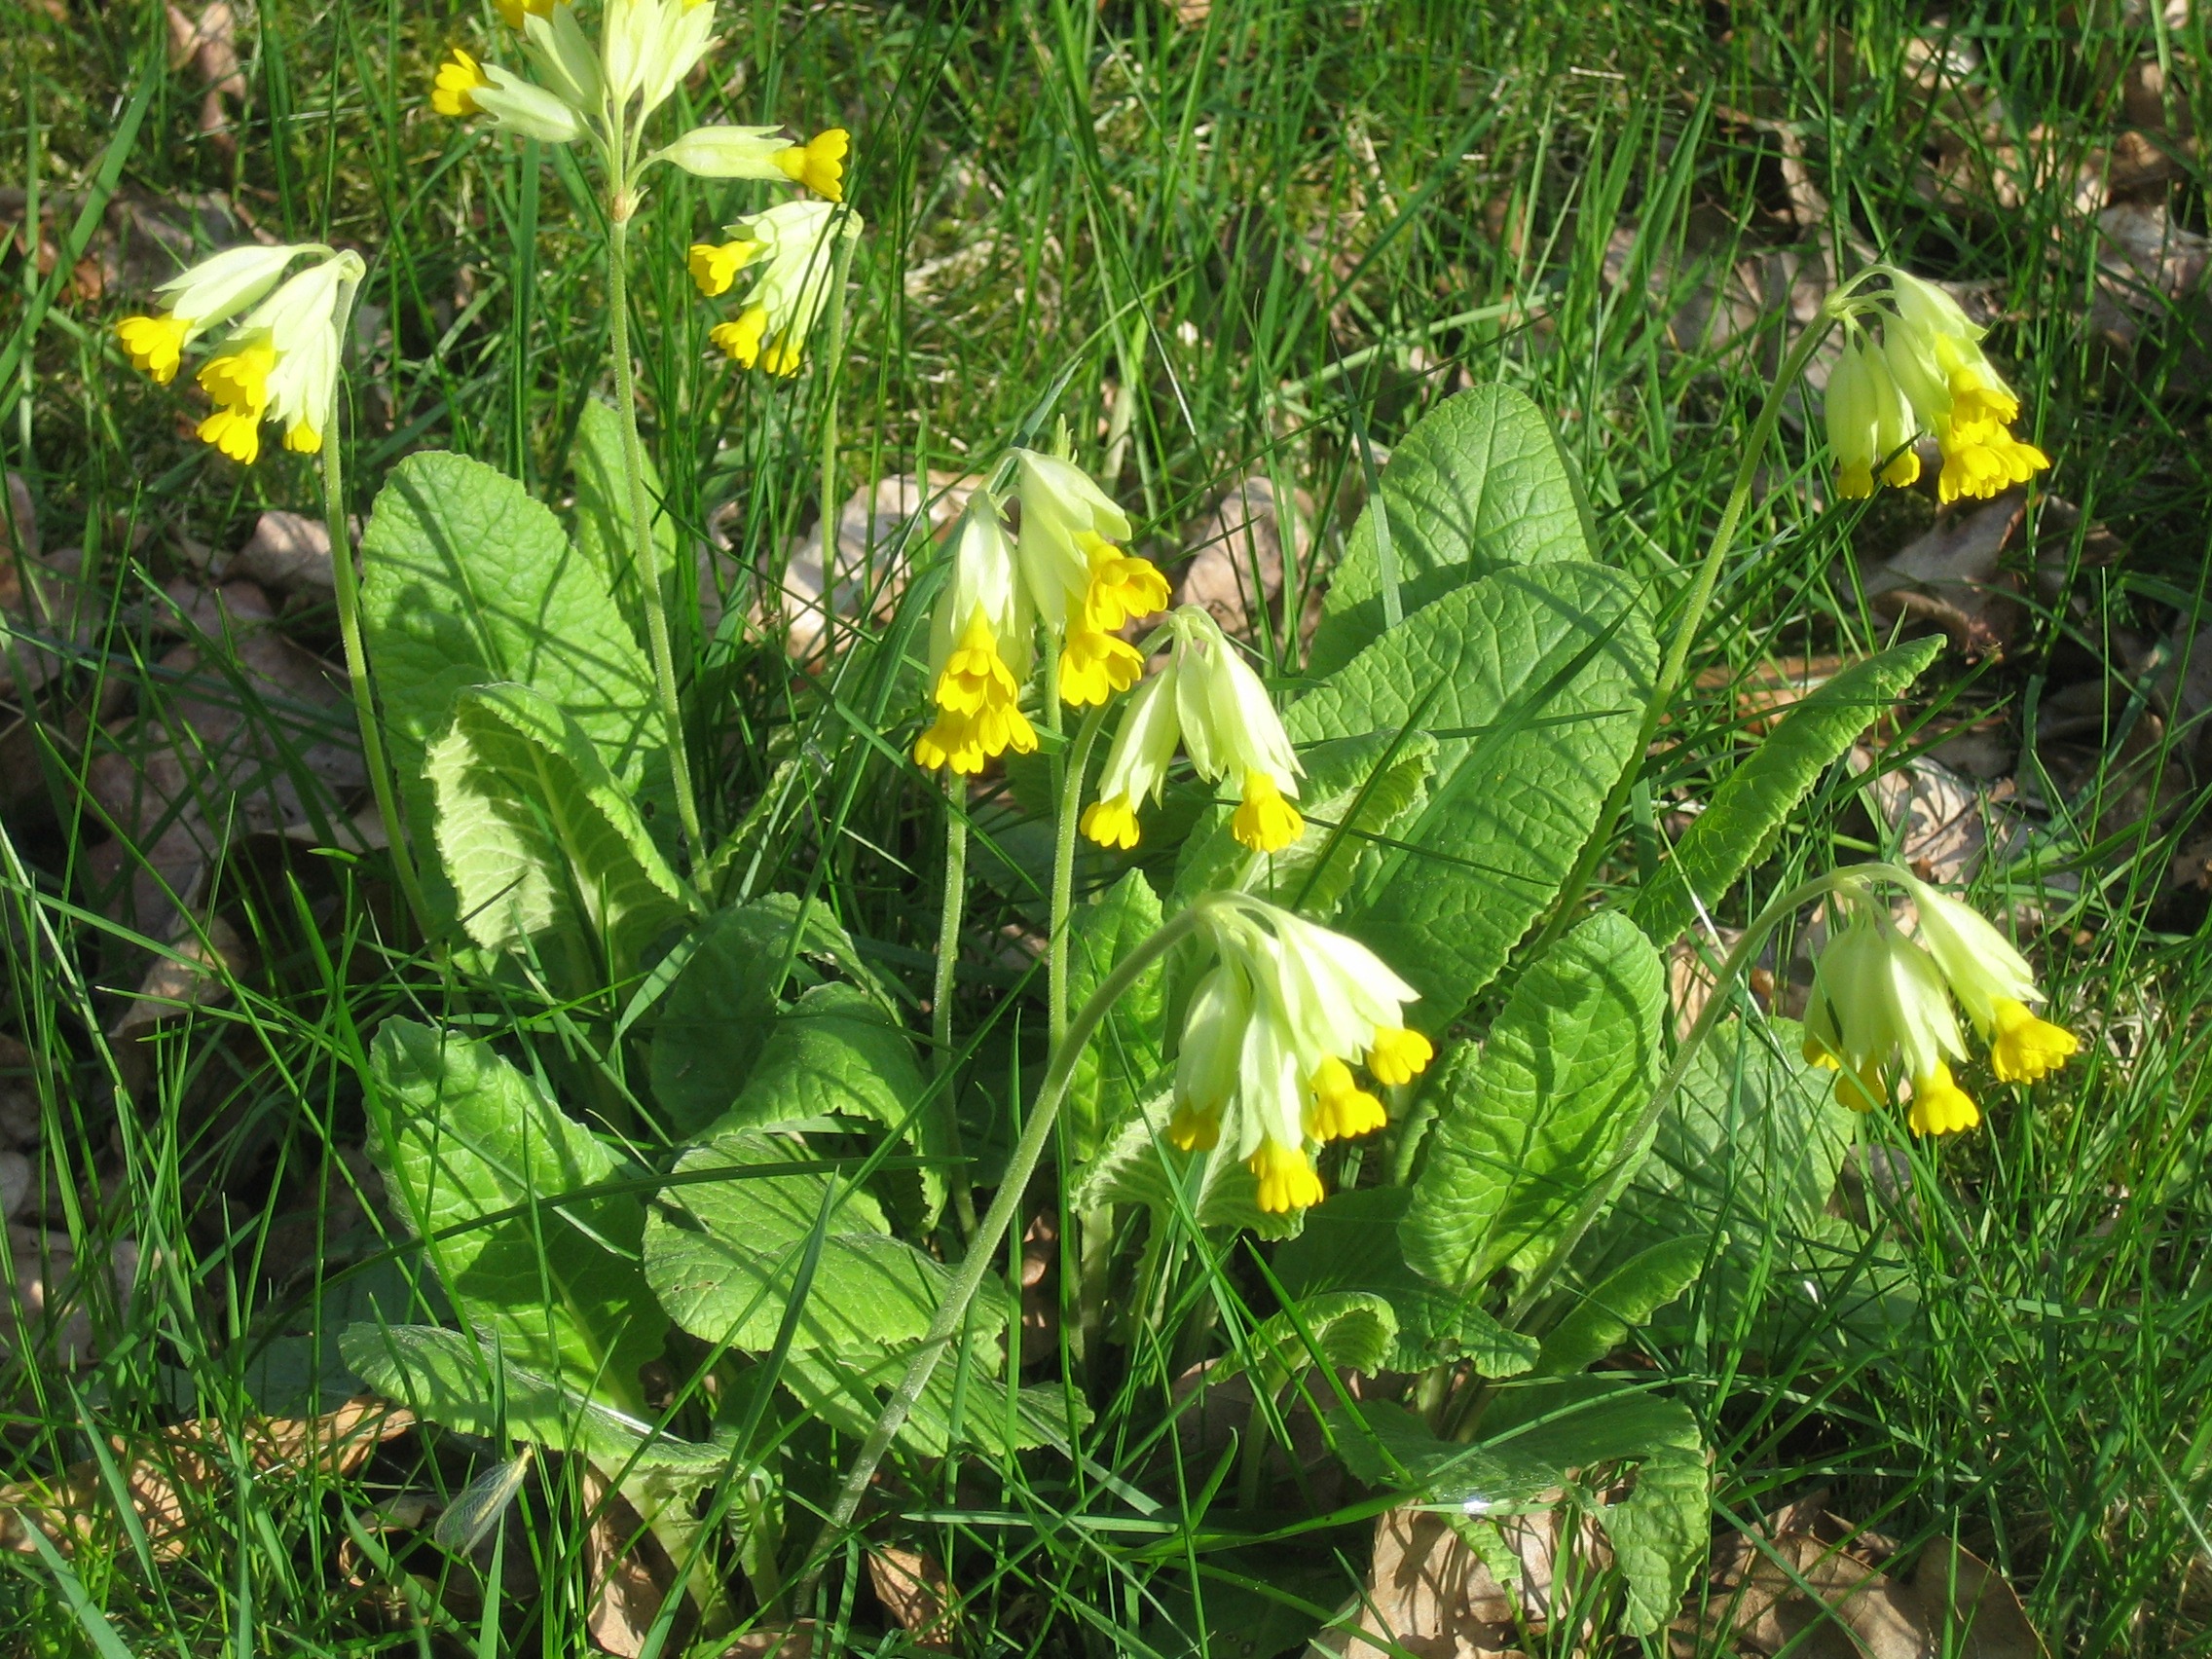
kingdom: Plantae
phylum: Tracheophyta
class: Magnoliopsida
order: Ericales
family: Primulaceae
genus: Primula
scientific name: Primula veris
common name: Hulkravet kodriver
